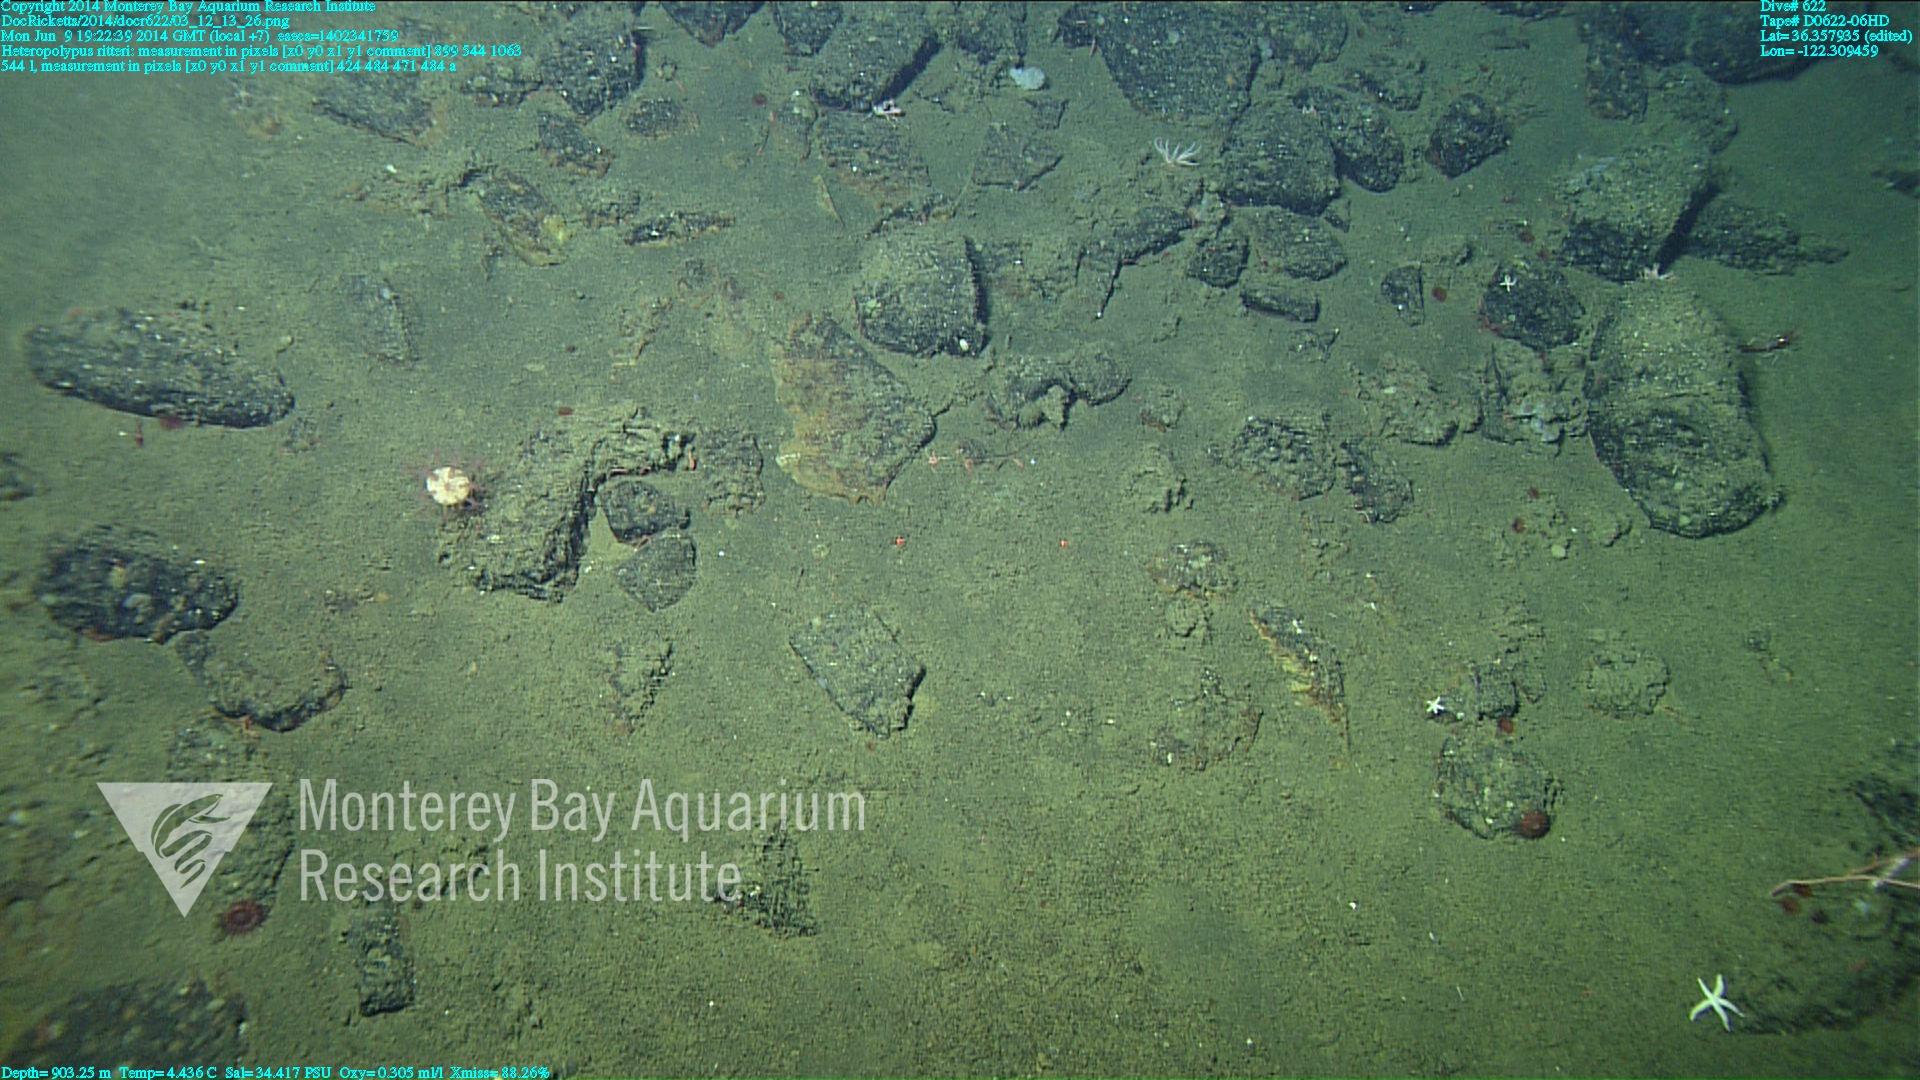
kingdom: Animalia
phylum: Cnidaria
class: Anthozoa
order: Scleralcyonacea
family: Coralliidae
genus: Heteropolypus
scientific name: Heteropolypus ritteri
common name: Ritter's soft coral
